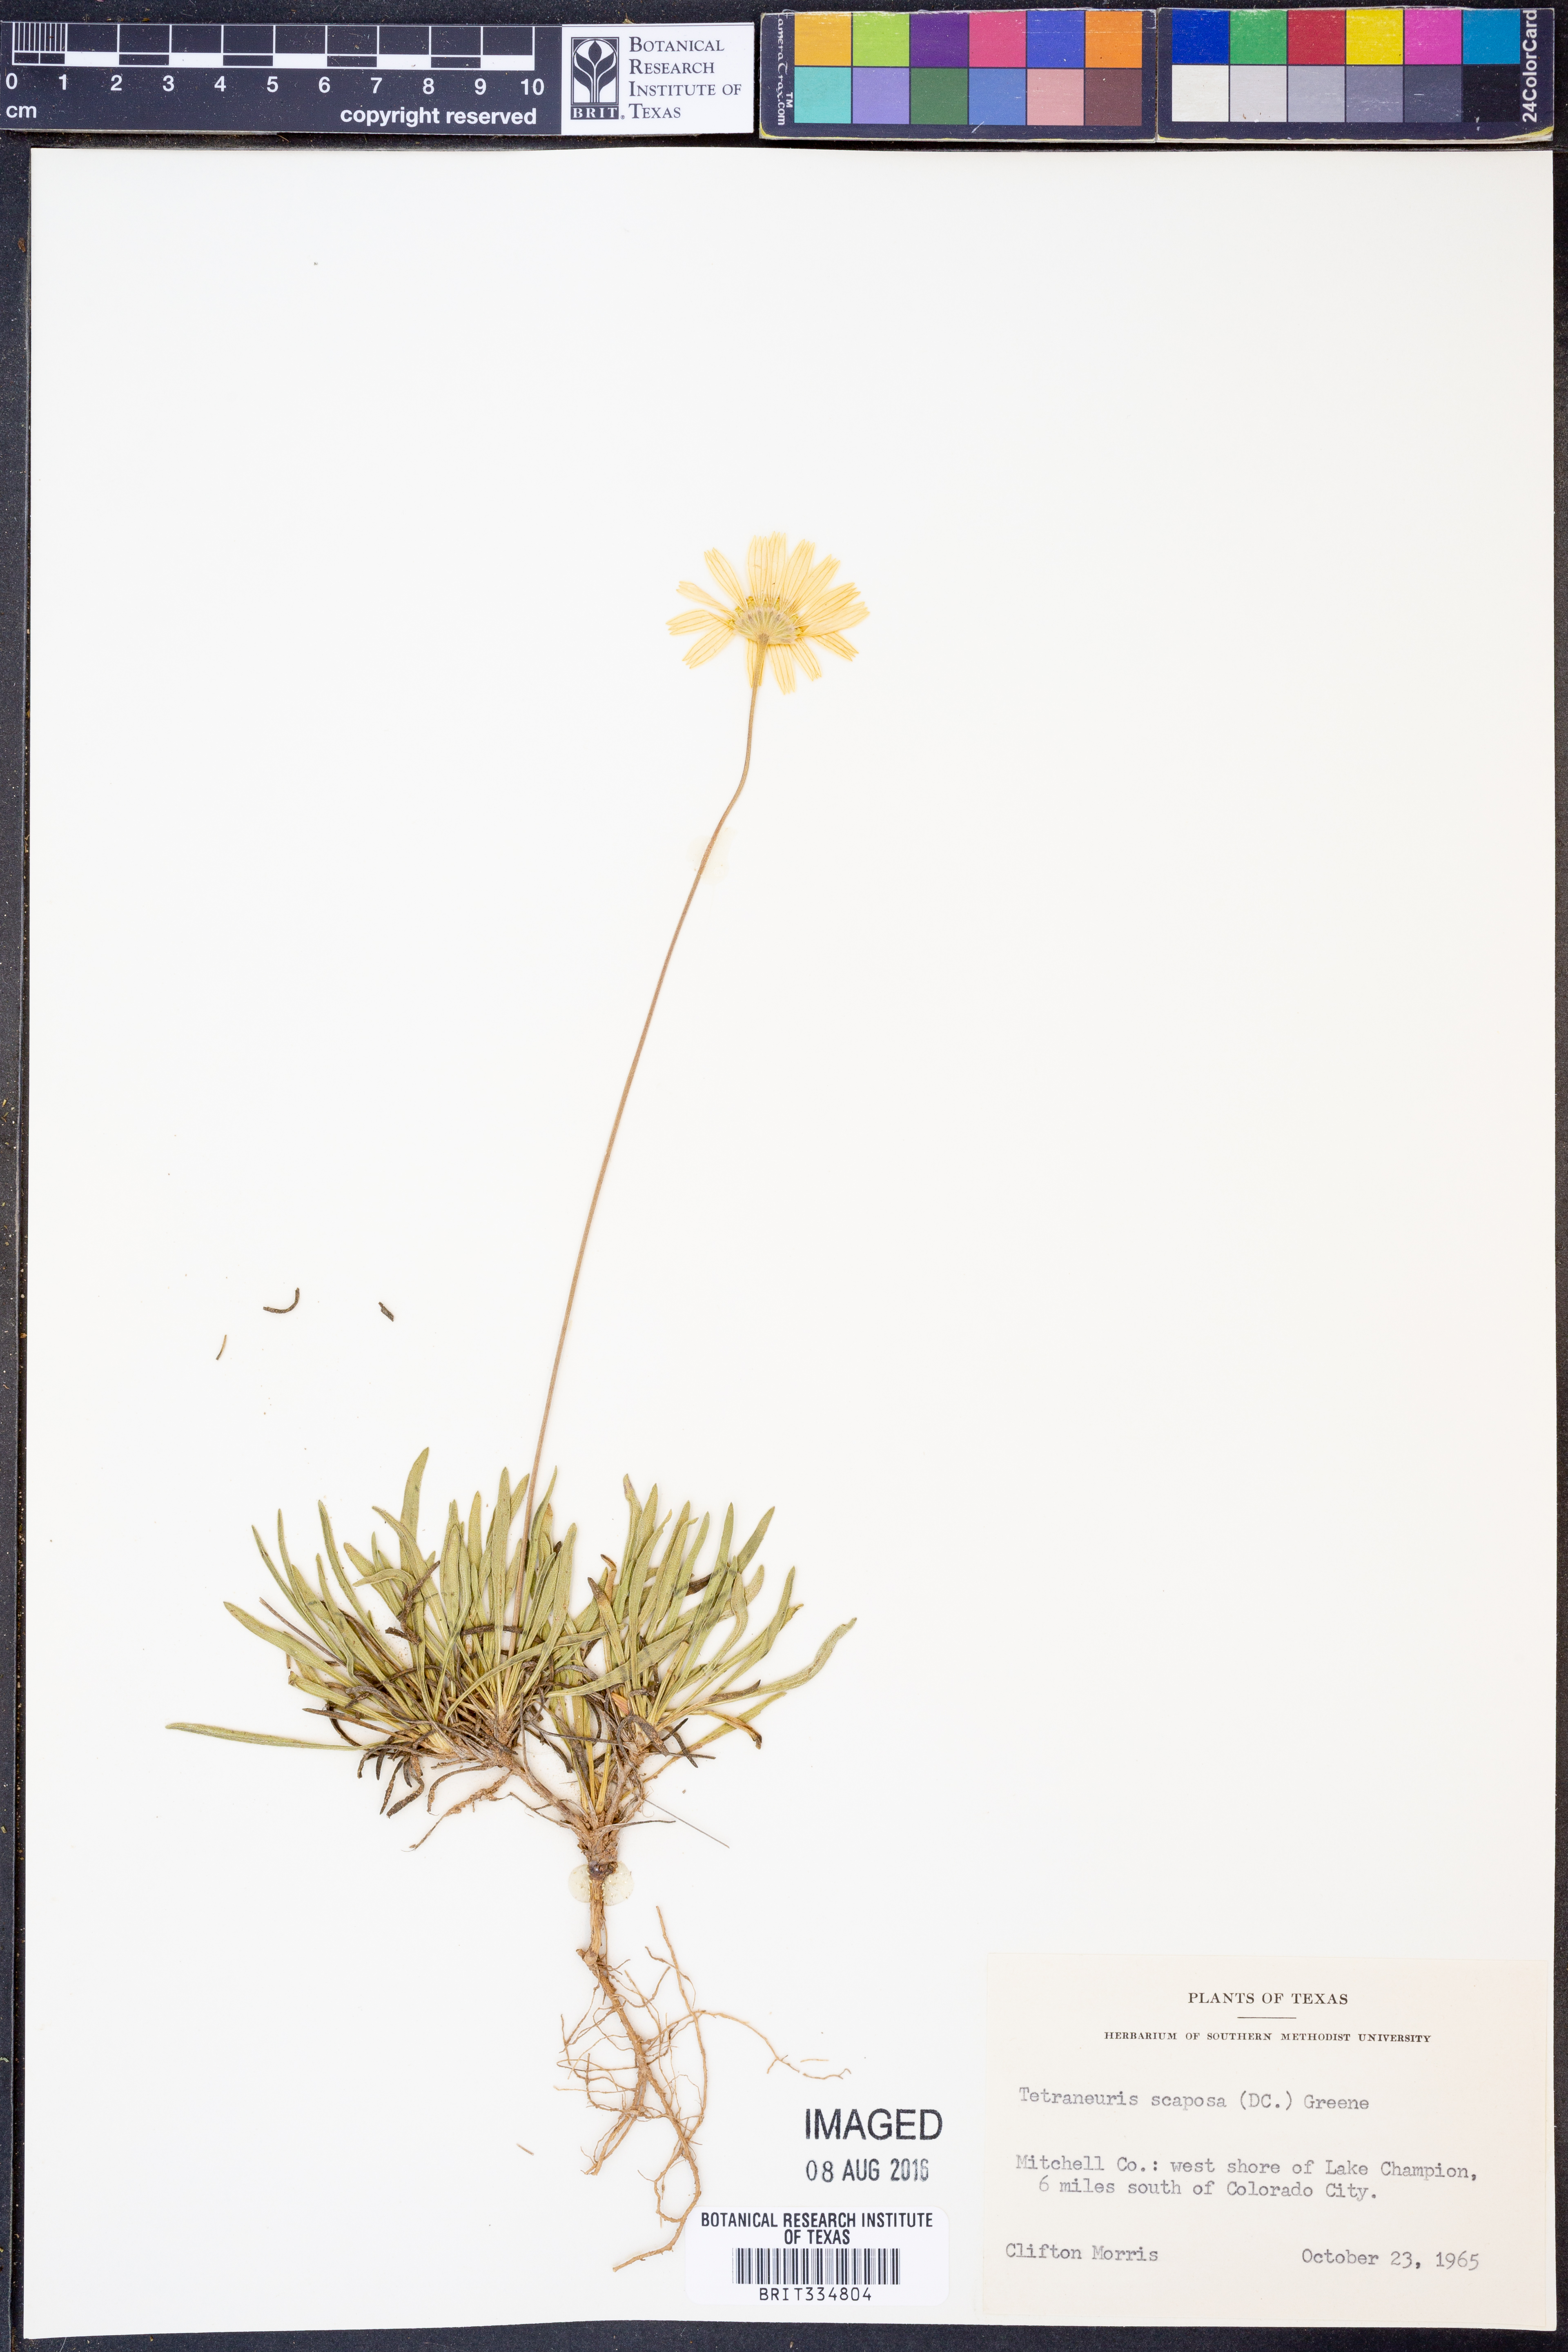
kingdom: Plantae
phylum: Tracheophyta
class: Magnoliopsida
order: Asterales
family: Asteraceae
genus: Tetraneuris
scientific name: Tetraneuris scaposa
